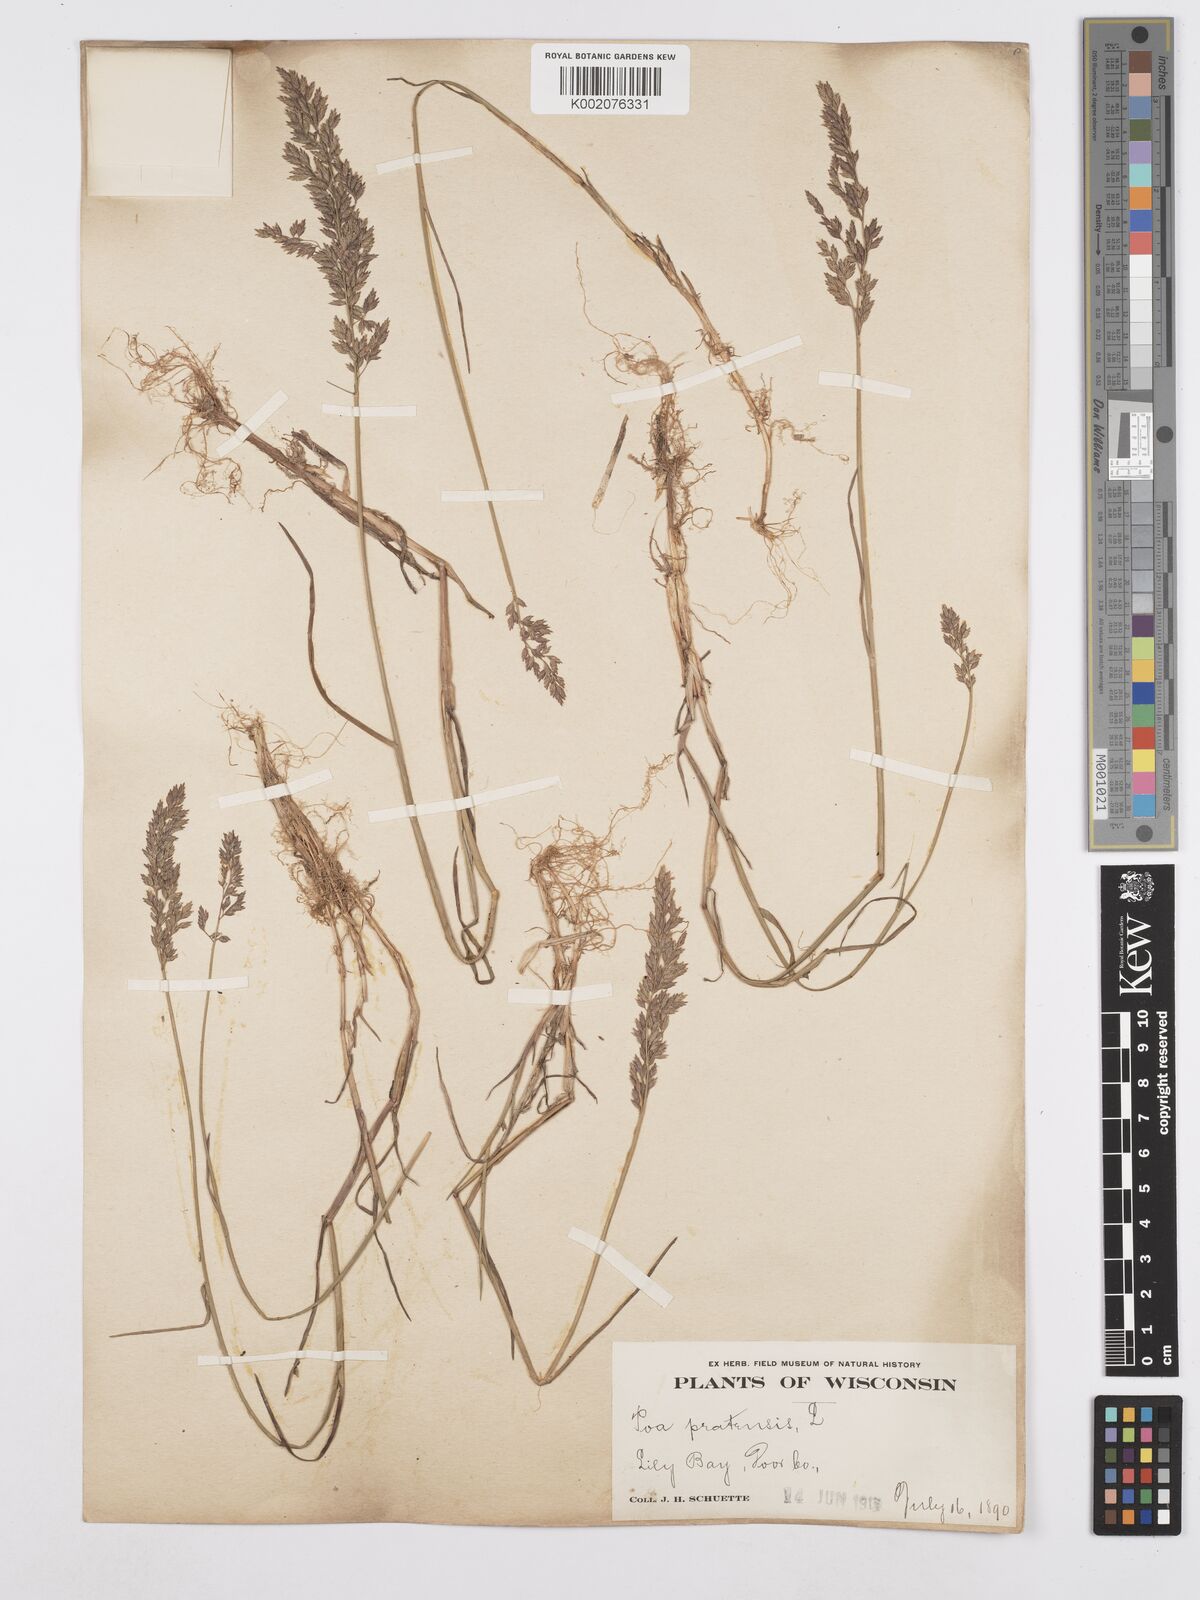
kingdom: Plantae
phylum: Tracheophyta
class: Liliopsida
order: Poales
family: Poaceae
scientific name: Poaceae
